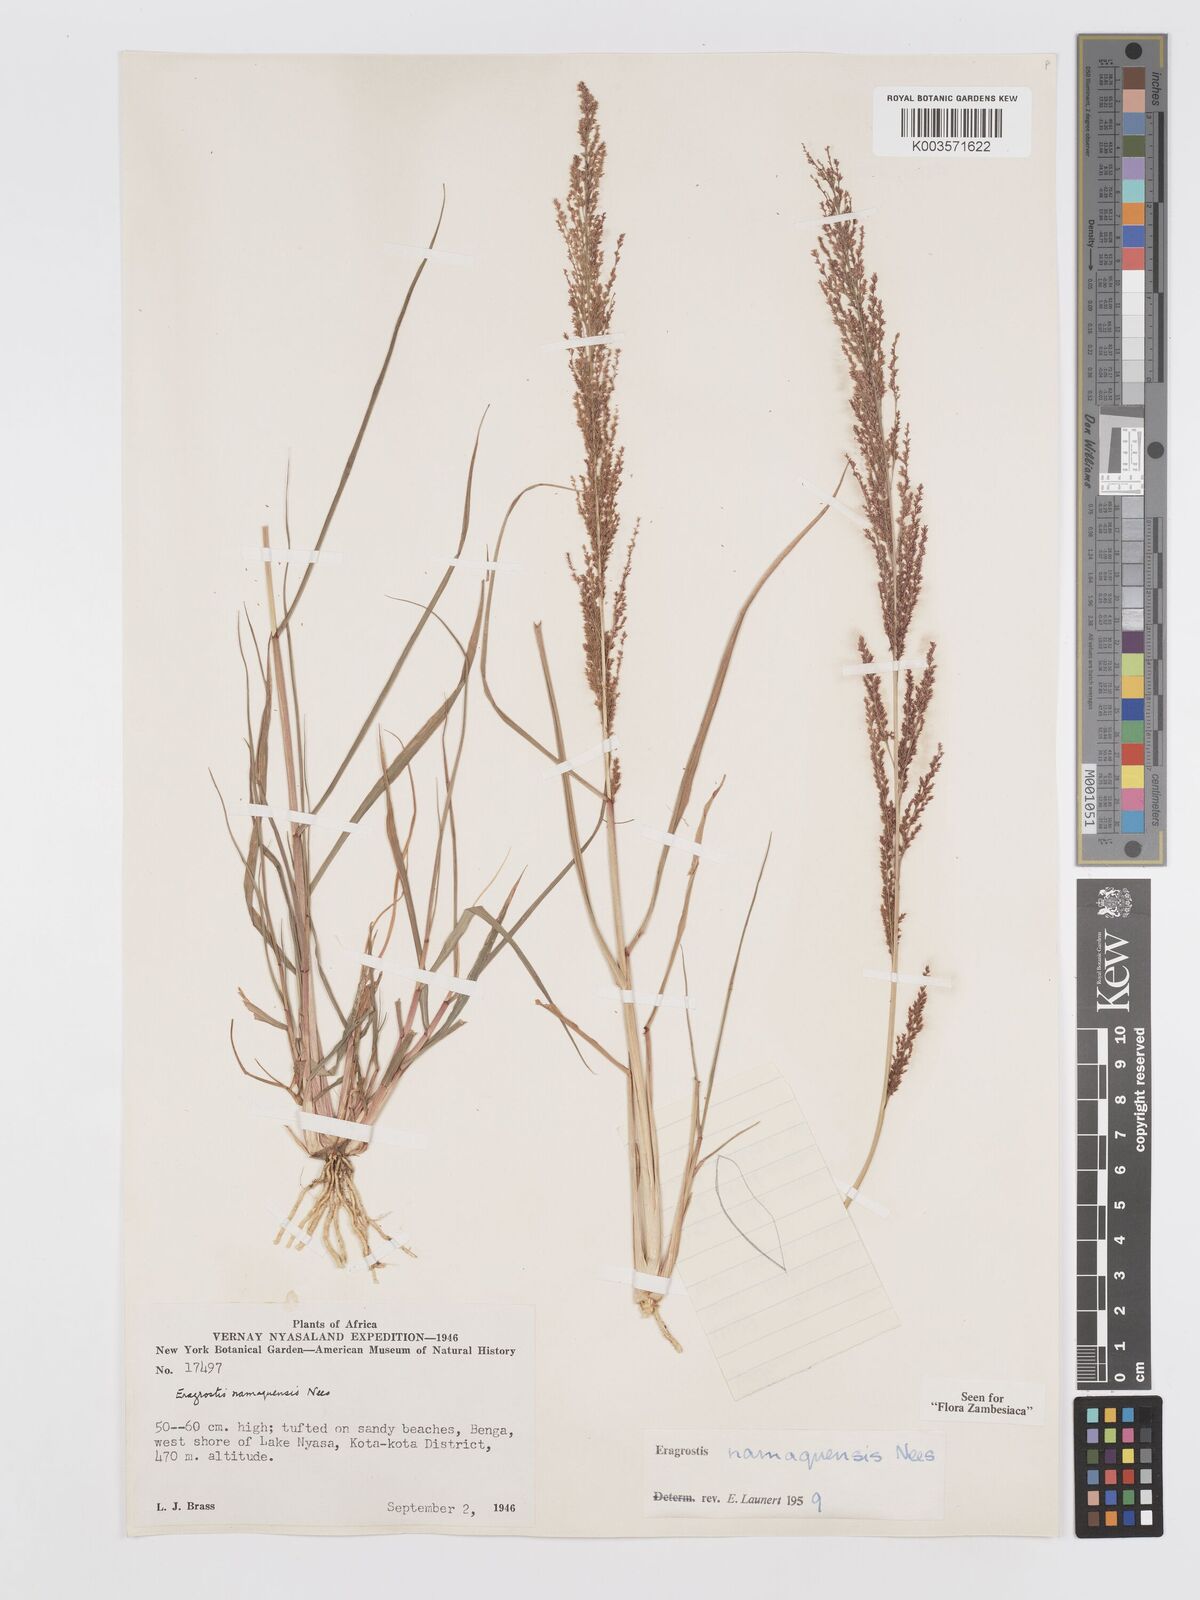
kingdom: Plantae
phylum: Tracheophyta
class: Liliopsida
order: Poales
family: Poaceae
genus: Eragrostis
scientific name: Eragrostis japonica
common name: Pond lovegrass
